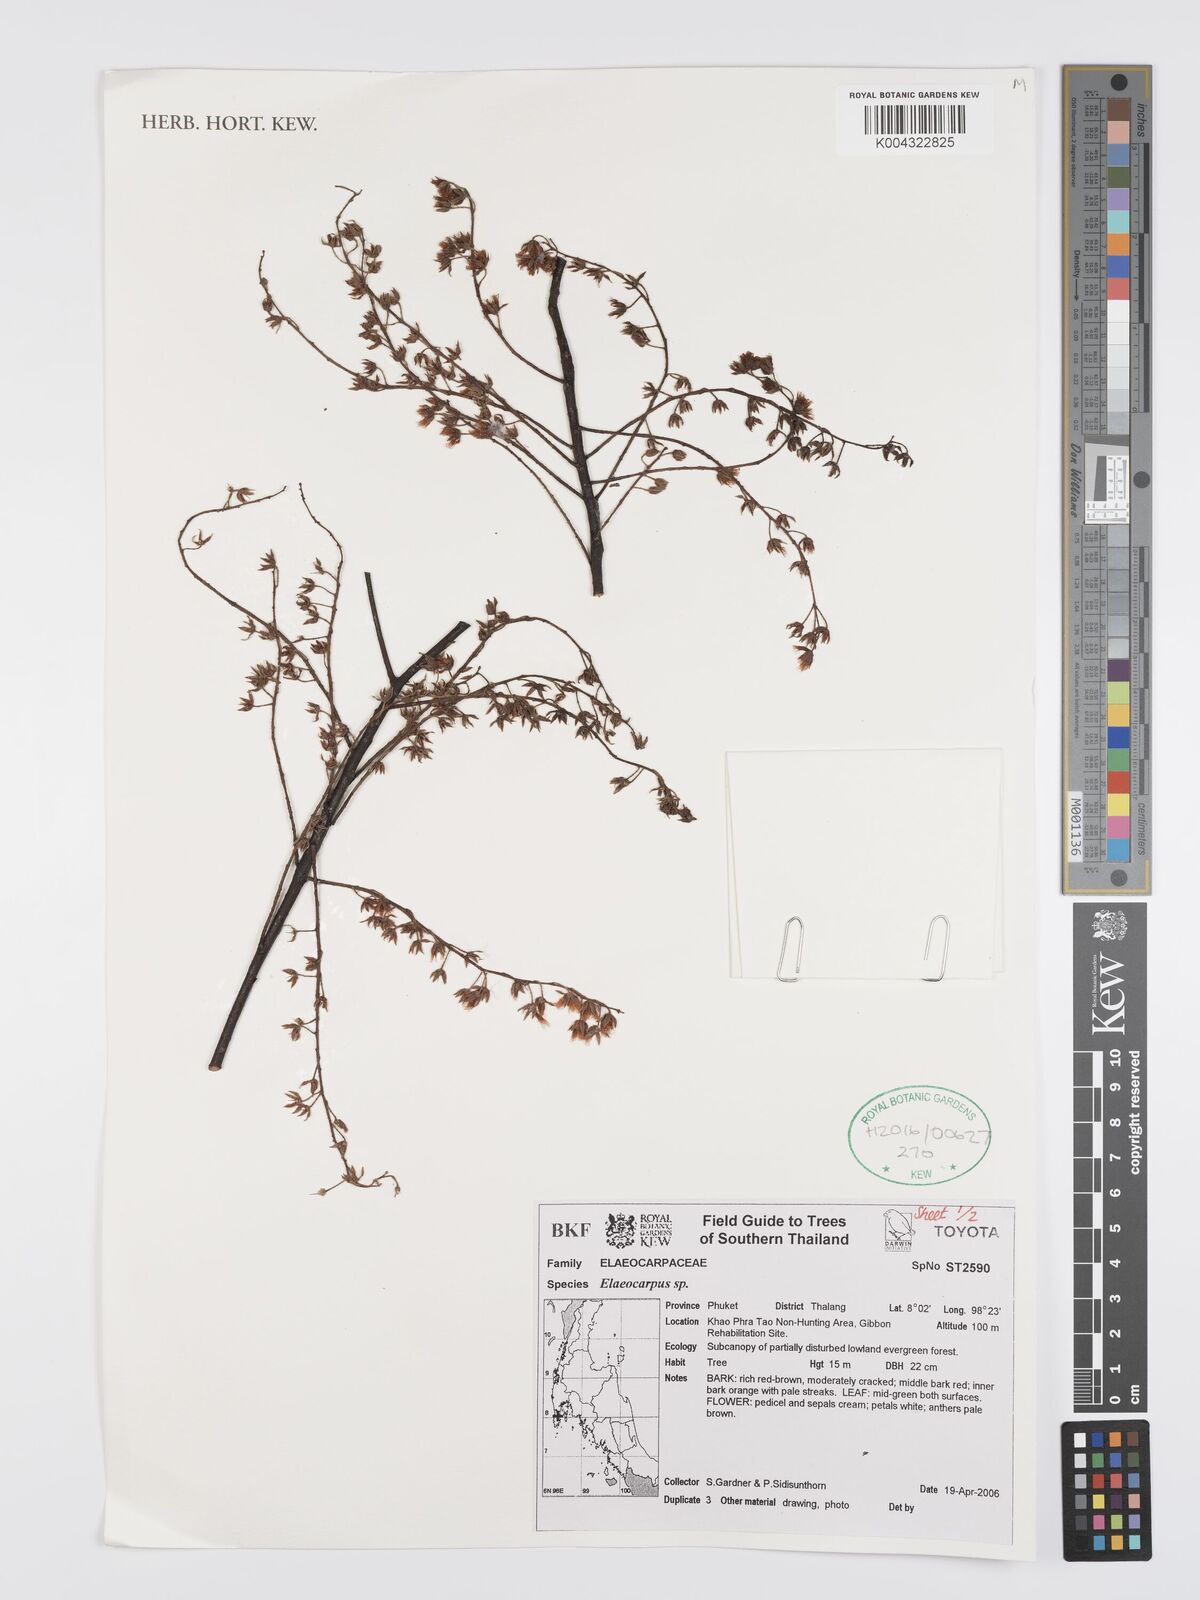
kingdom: Plantae
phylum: Tracheophyta
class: Magnoliopsida
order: Oxalidales
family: Elaeocarpaceae
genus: Elaeocarpus
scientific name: Elaeocarpus
